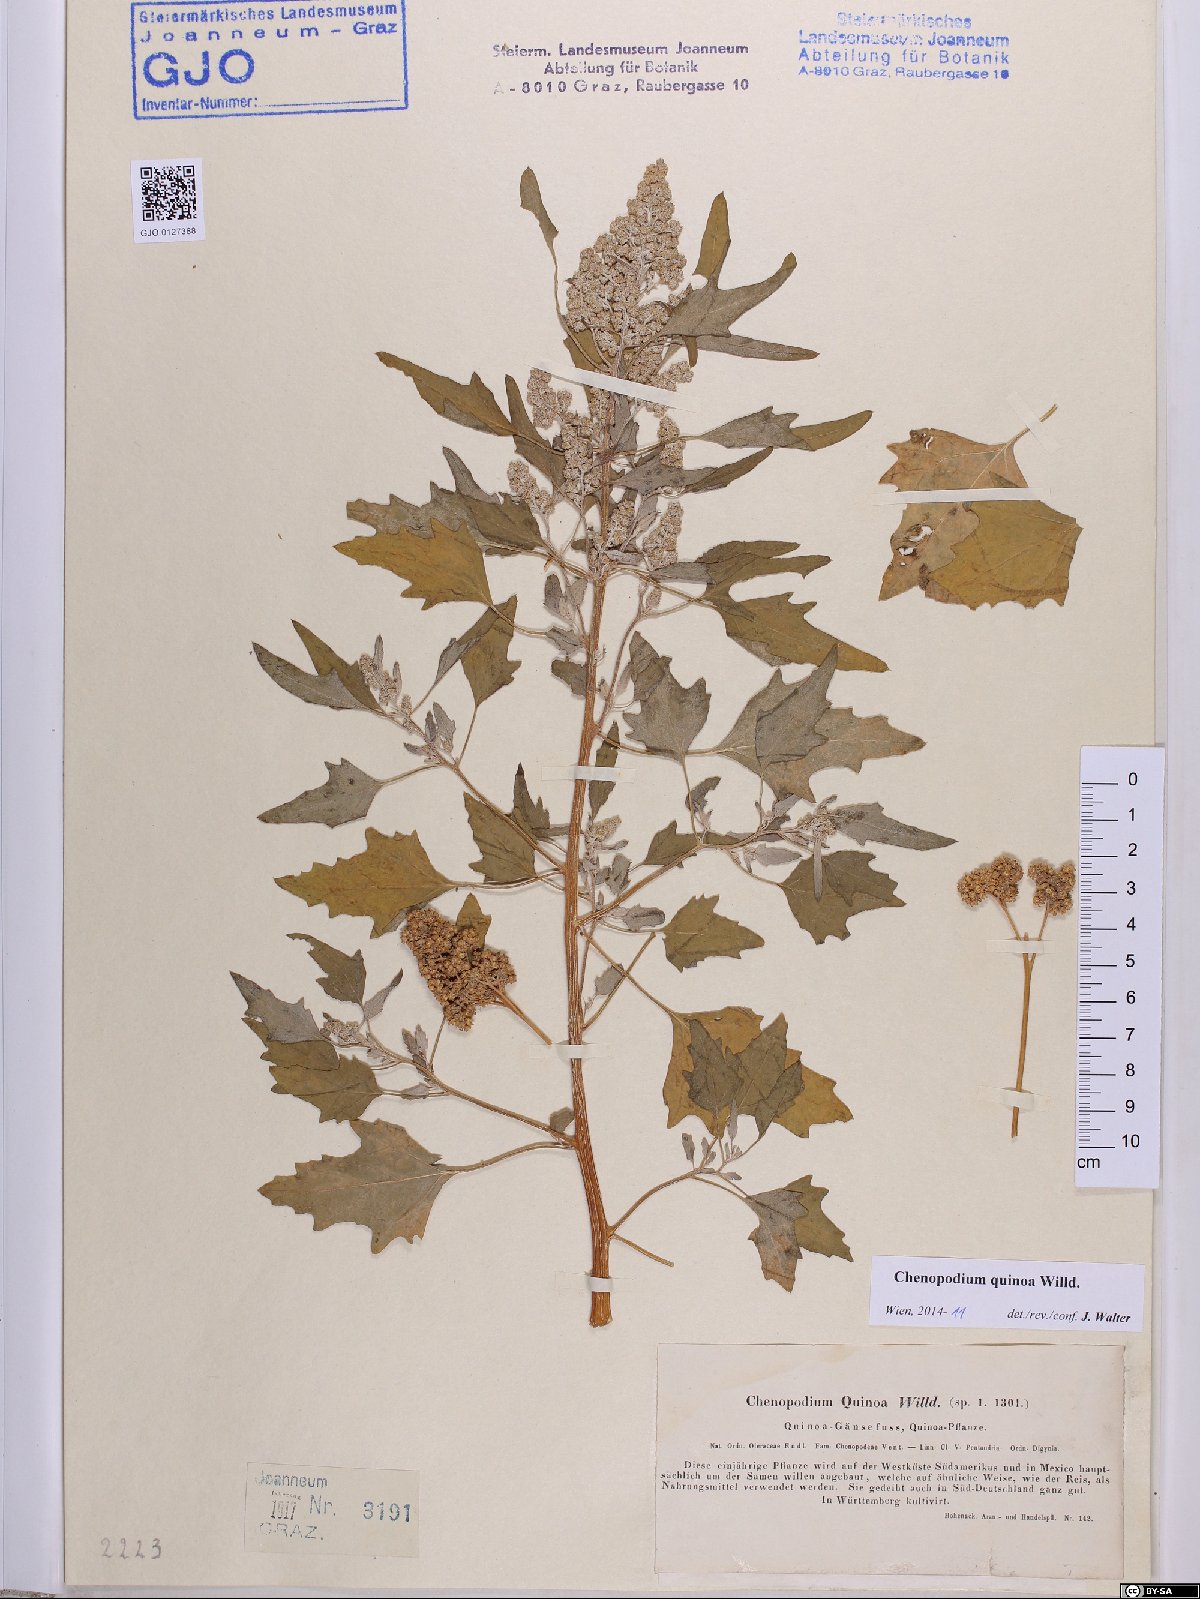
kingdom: Plantae
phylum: Tracheophyta
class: Magnoliopsida
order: Caryophyllales
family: Amaranthaceae
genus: Chenopodium
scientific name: Chenopodium quinoa
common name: Quinoa
